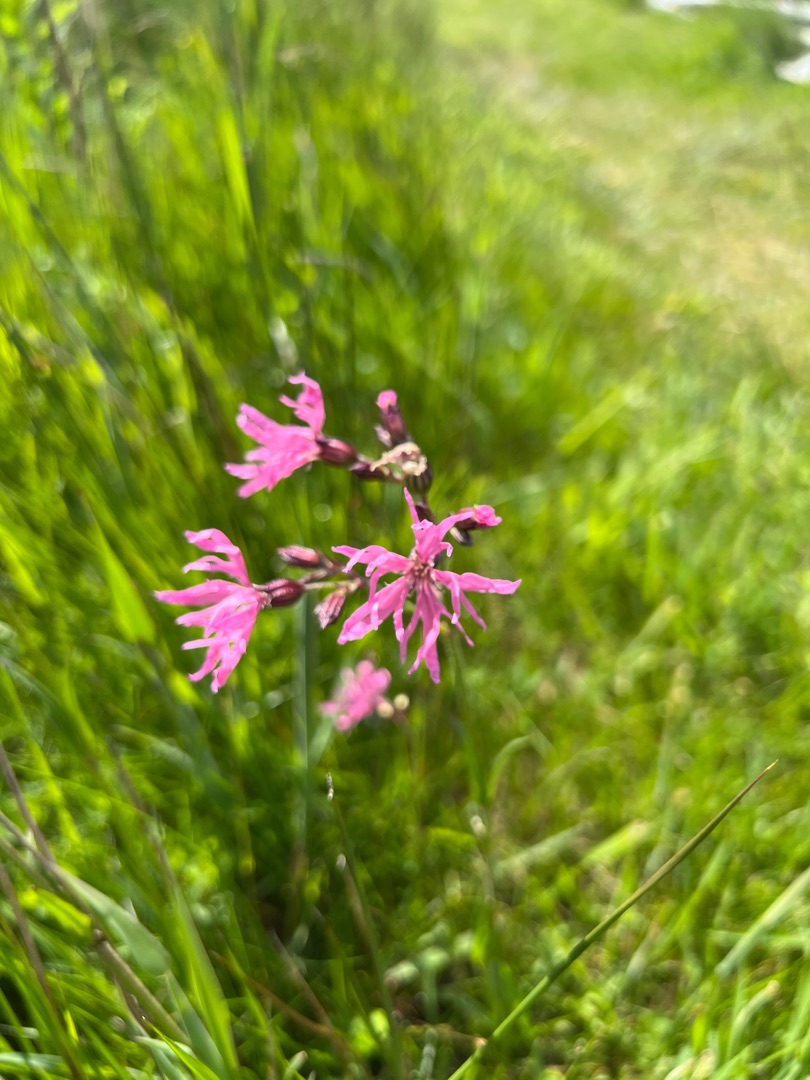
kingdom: Plantae
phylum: Tracheophyta
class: Magnoliopsida
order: Caryophyllales
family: Caryophyllaceae
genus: Silene
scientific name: Silene flos-cuculi
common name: Trævlekrone
